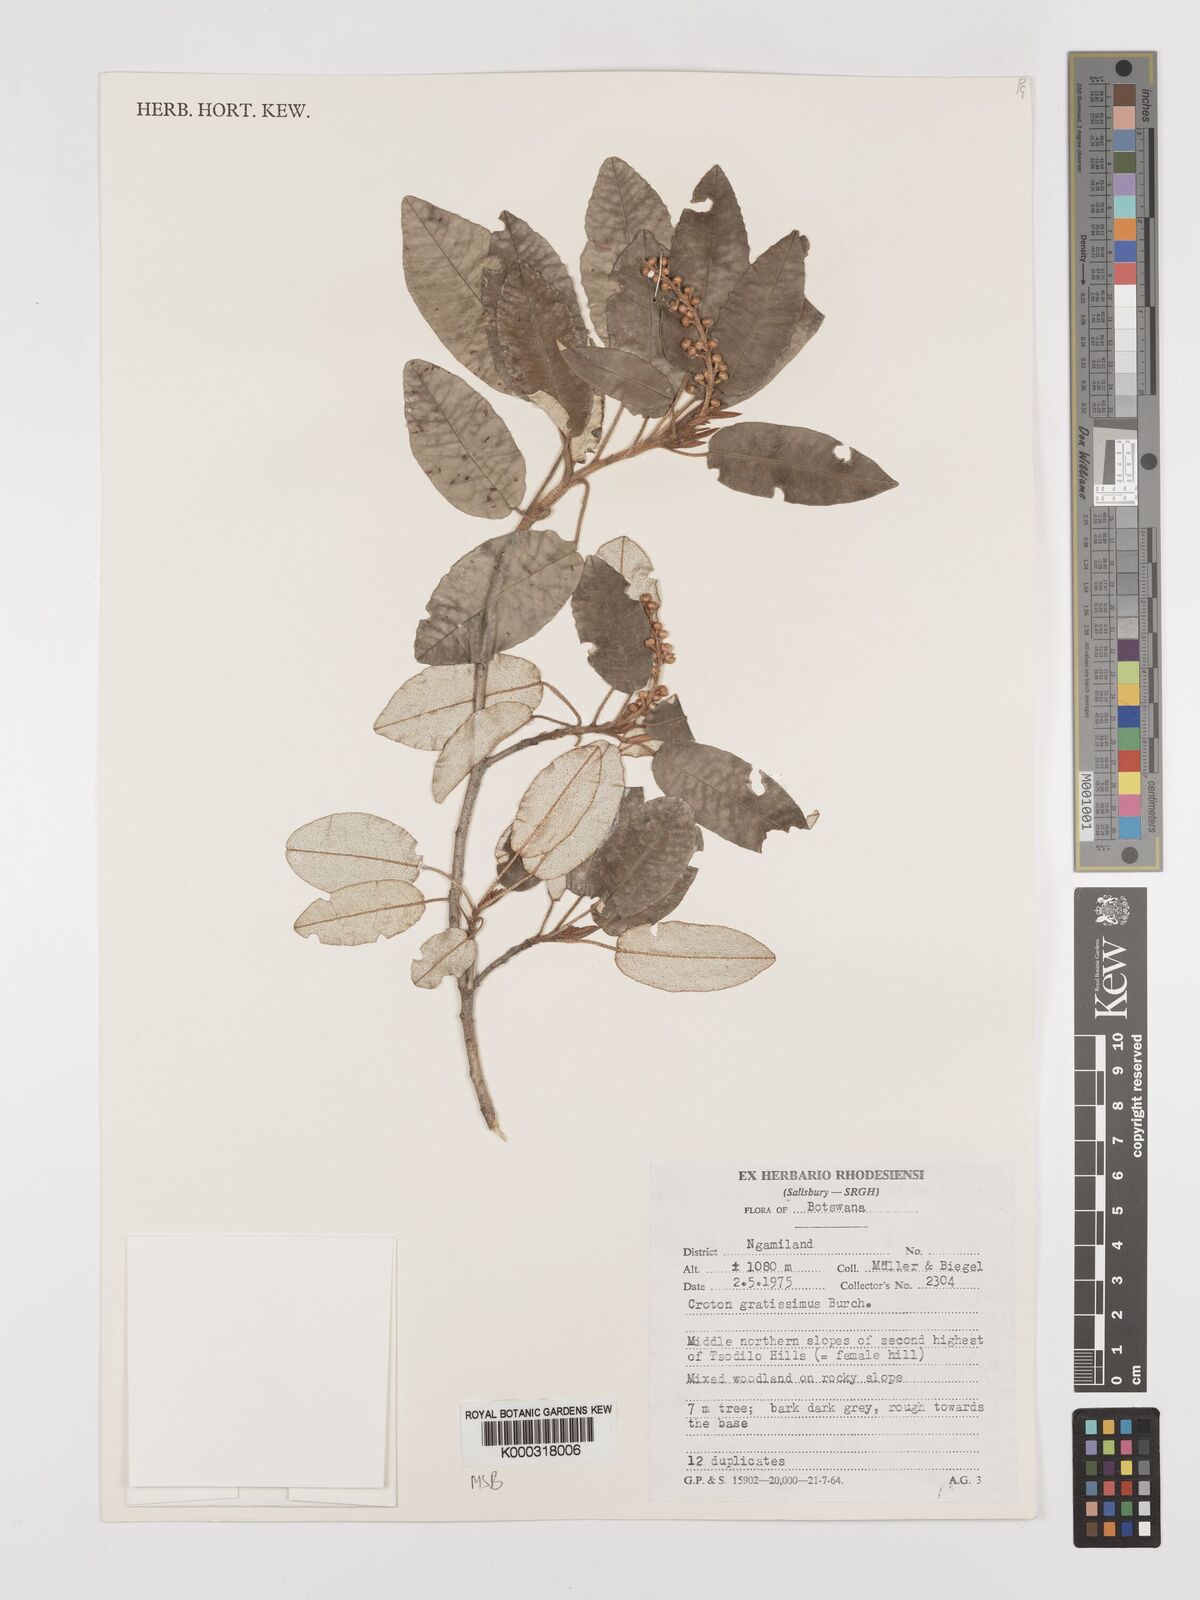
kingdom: Plantae
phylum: Tracheophyta
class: Magnoliopsida
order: Malpighiales
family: Euphorbiaceae
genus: Croton
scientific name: Croton gratissimus
